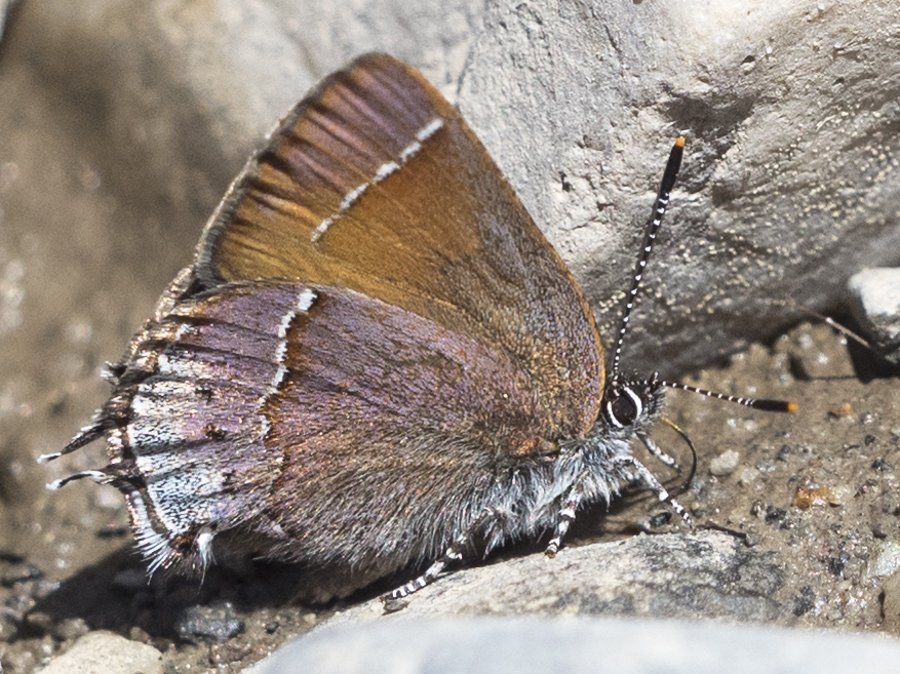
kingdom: Animalia
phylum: Arthropoda
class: Insecta
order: Lepidoptera
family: Lycaenidae
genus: Mitoura
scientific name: Mitoura gryneus
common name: Juniper Hairstreak
